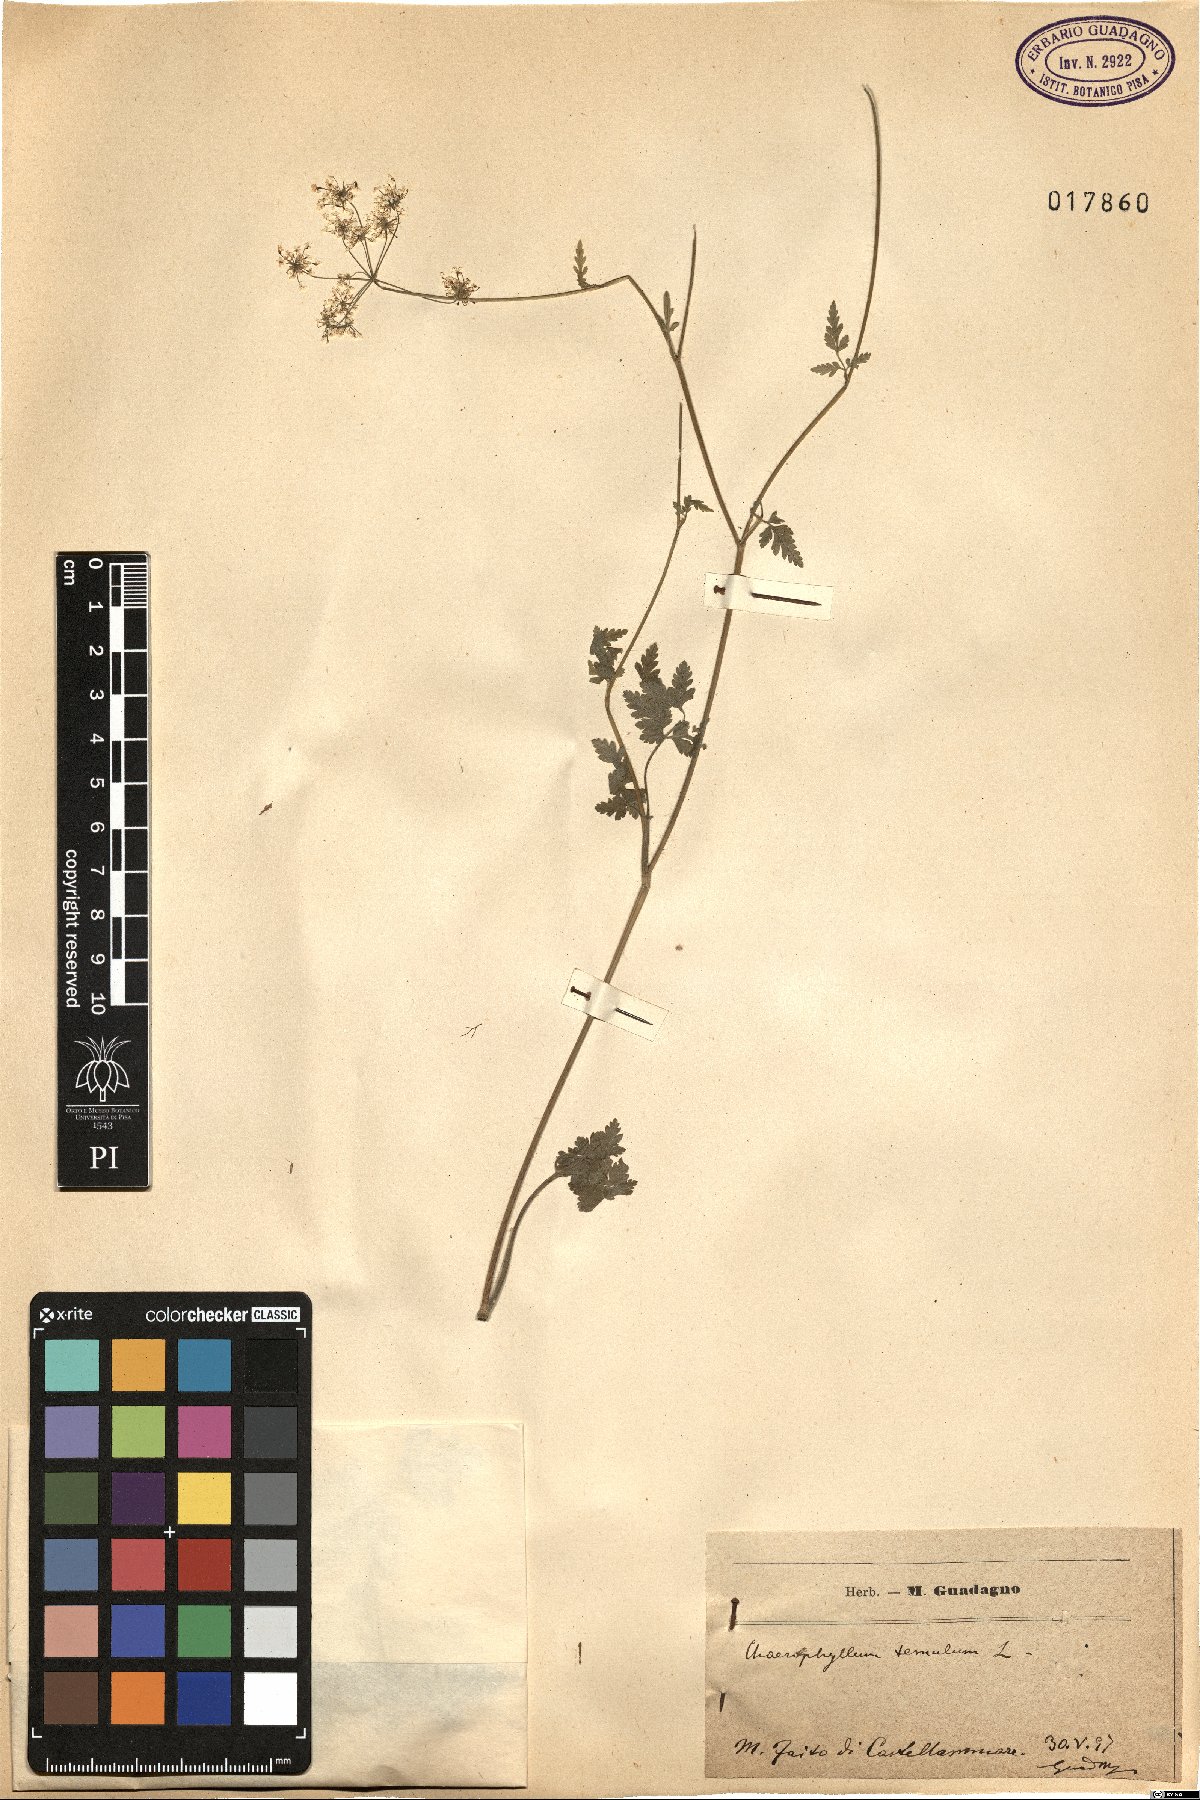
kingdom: Plantae
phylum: Tracheophyta
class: Magnoliopsida
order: Apiales
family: Apiaceae
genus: Chaerophyllum
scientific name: Chaerophyllum temulum
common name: Rough chervil
